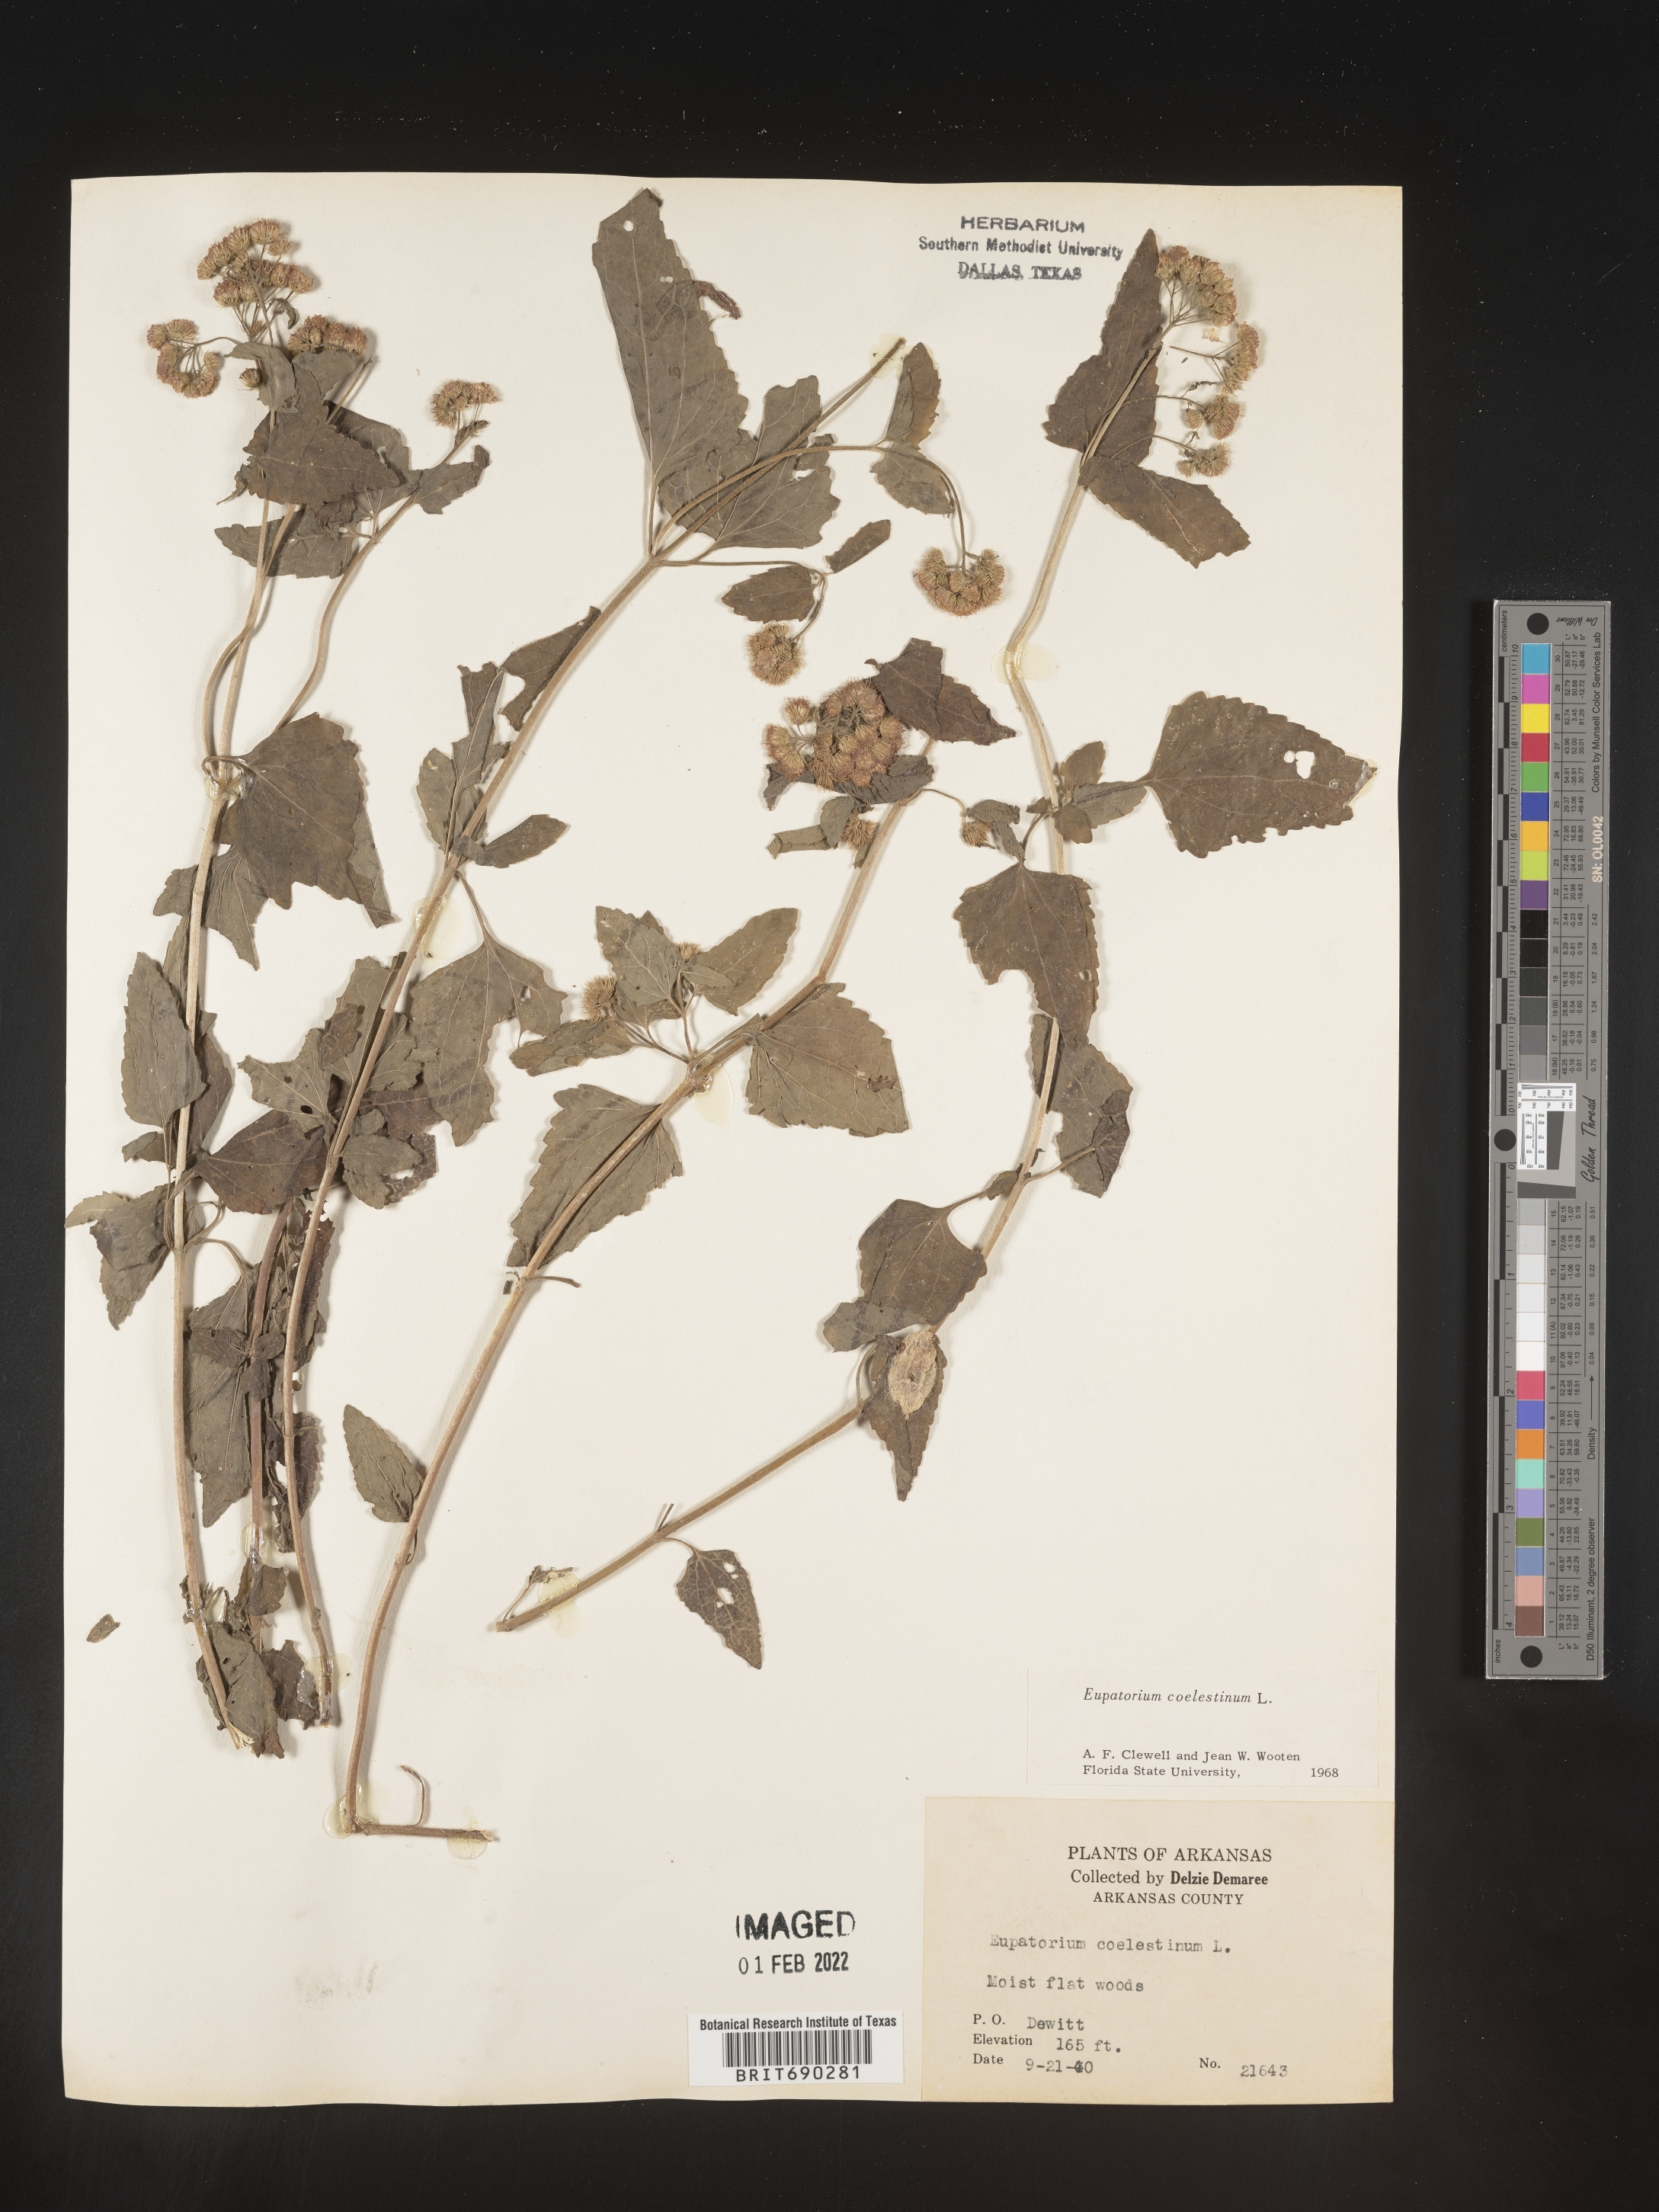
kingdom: Plantae
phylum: Tracheophyta
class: Magnoliopsida
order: Asterales
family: Asteraceae
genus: Conoclinium
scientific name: Conoclinium coelestinum
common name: Blue mistflower
